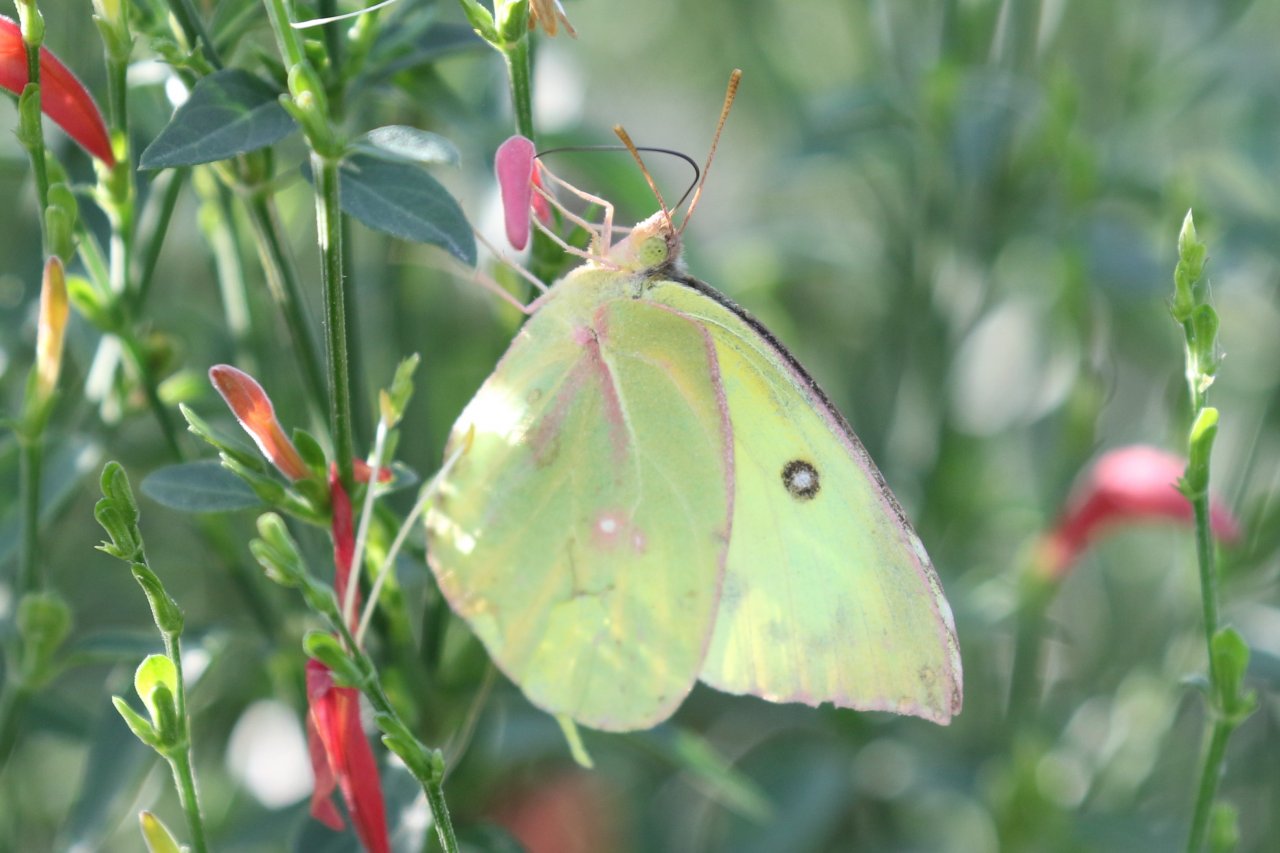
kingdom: Animalia
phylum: Arthropoda
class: Insecta
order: Lepidoptera
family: Pieridae
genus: Zerene
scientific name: Zerene cesonia
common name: Southern Dogface
